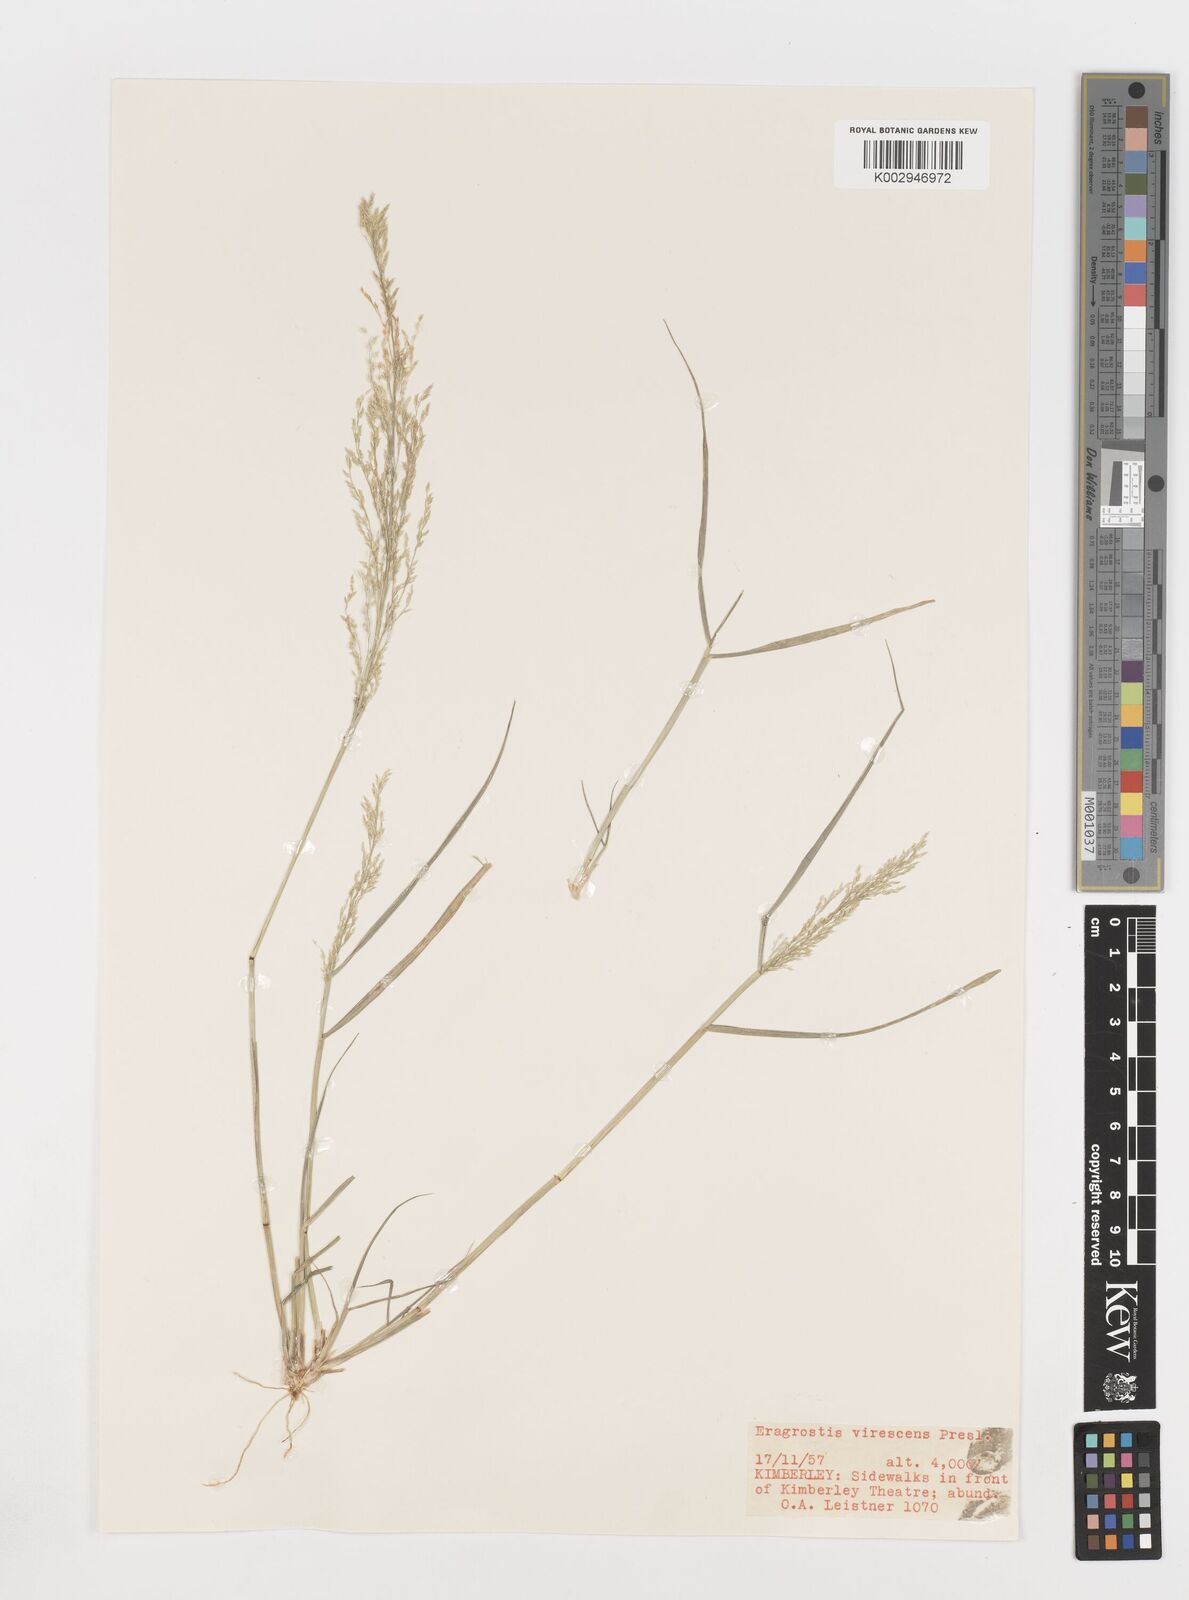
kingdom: Plantae
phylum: Tracheophyta
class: Liliopsida
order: Poales
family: Poaceae
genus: Eragrostis
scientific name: Eragrostis
